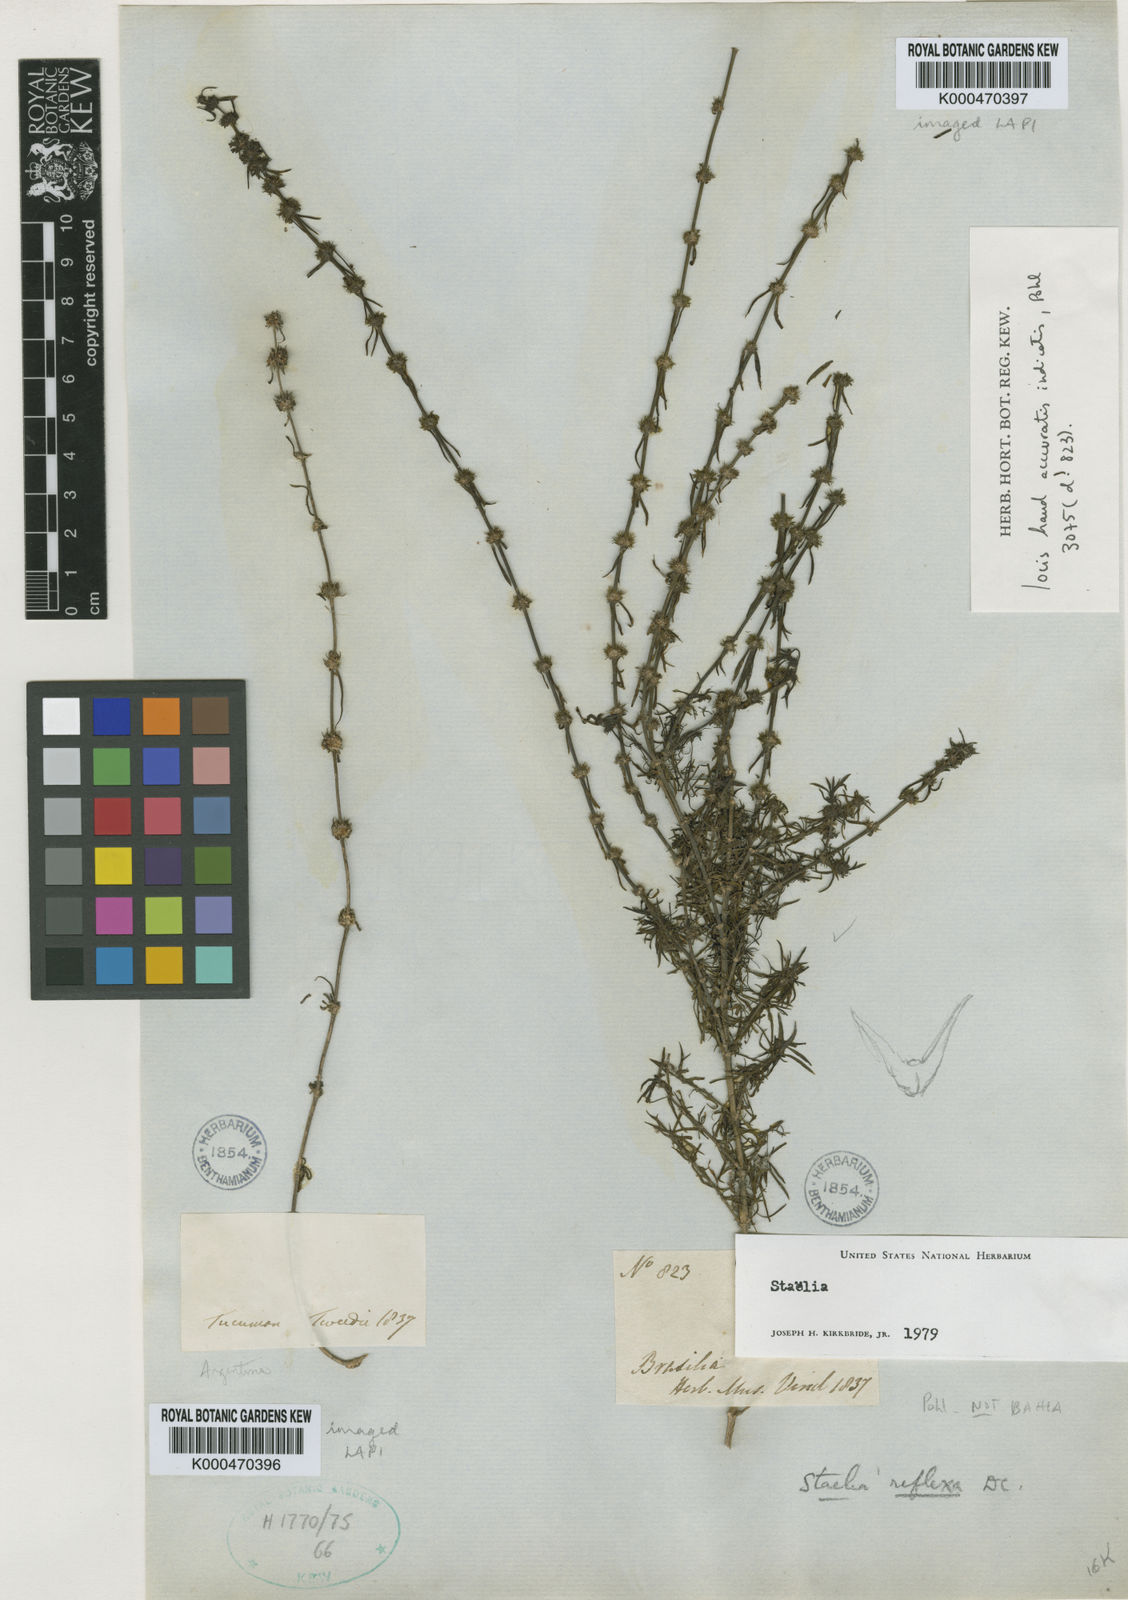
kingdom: Plantae
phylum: Tracheophyta
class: Magnoliopsida
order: Gentianales
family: Rubiaceae
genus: Staelia
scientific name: Staelia reflexa
